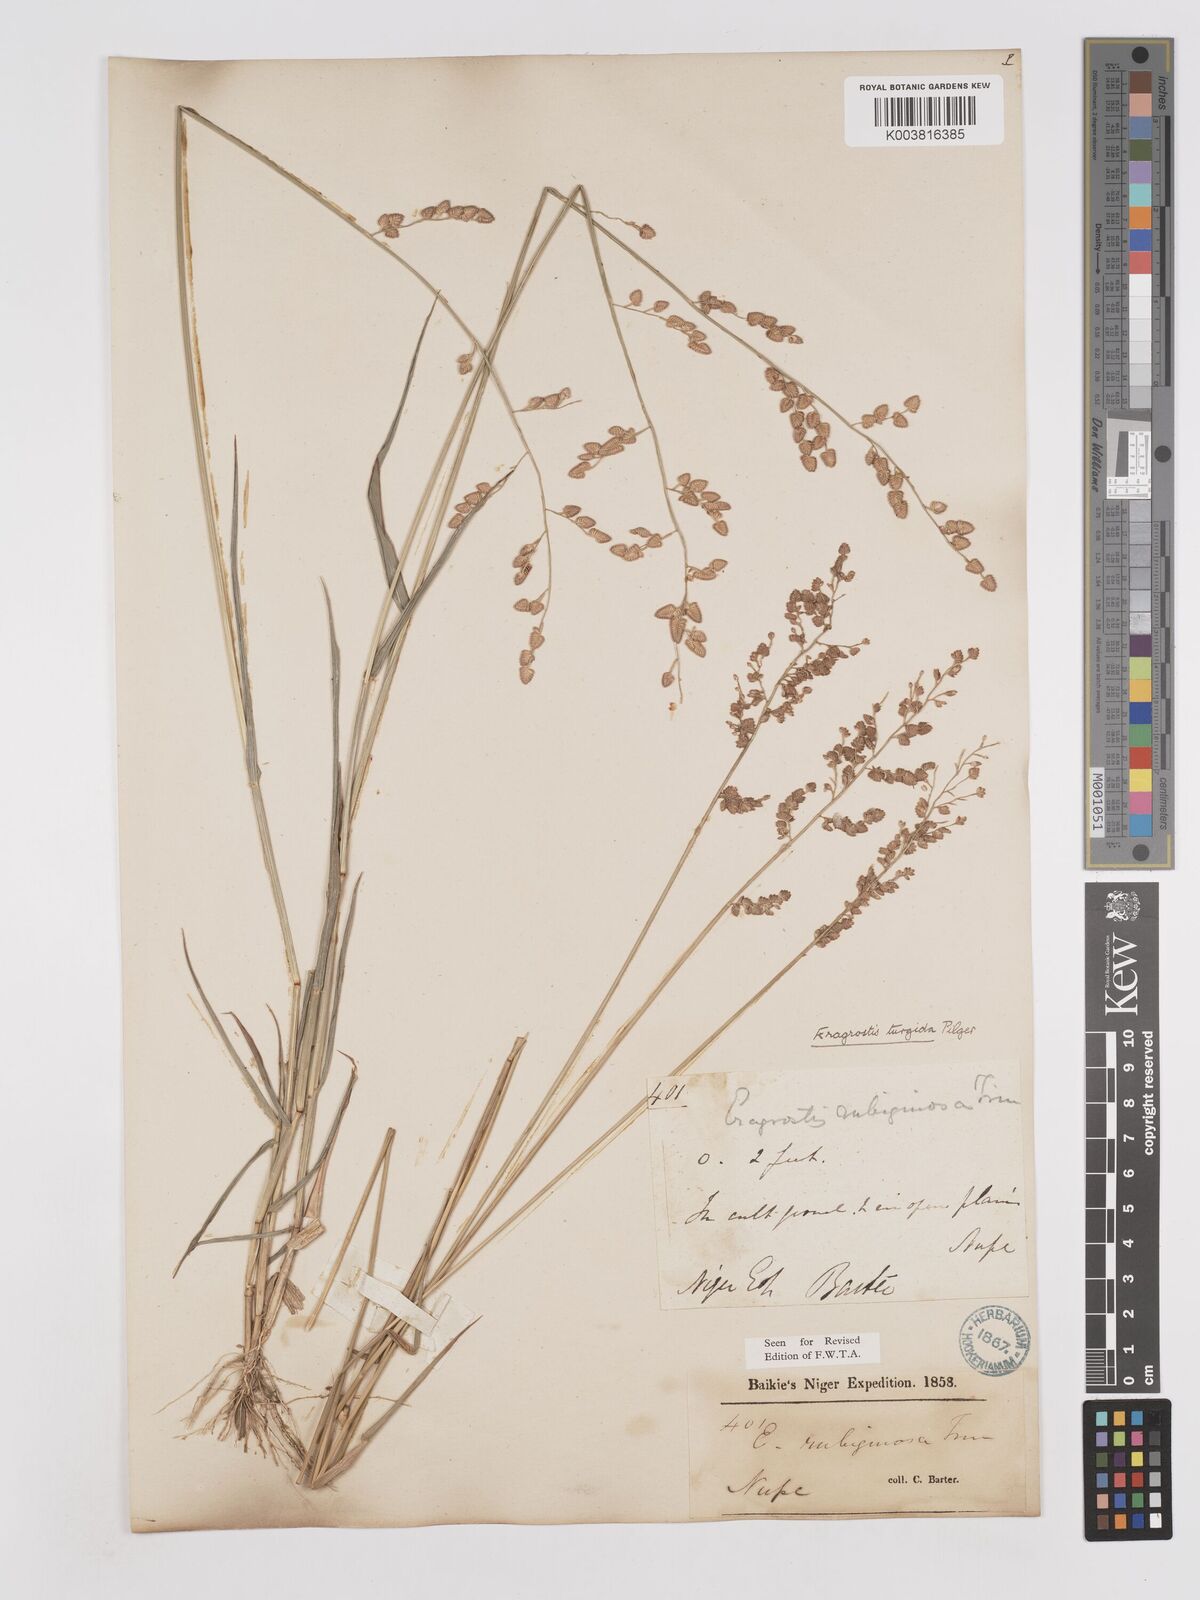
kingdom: Plantae
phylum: Tracheophyta
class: Liliopsida
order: Poales
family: Poaceae
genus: Eragrostis
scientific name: Eragrostis turgida
